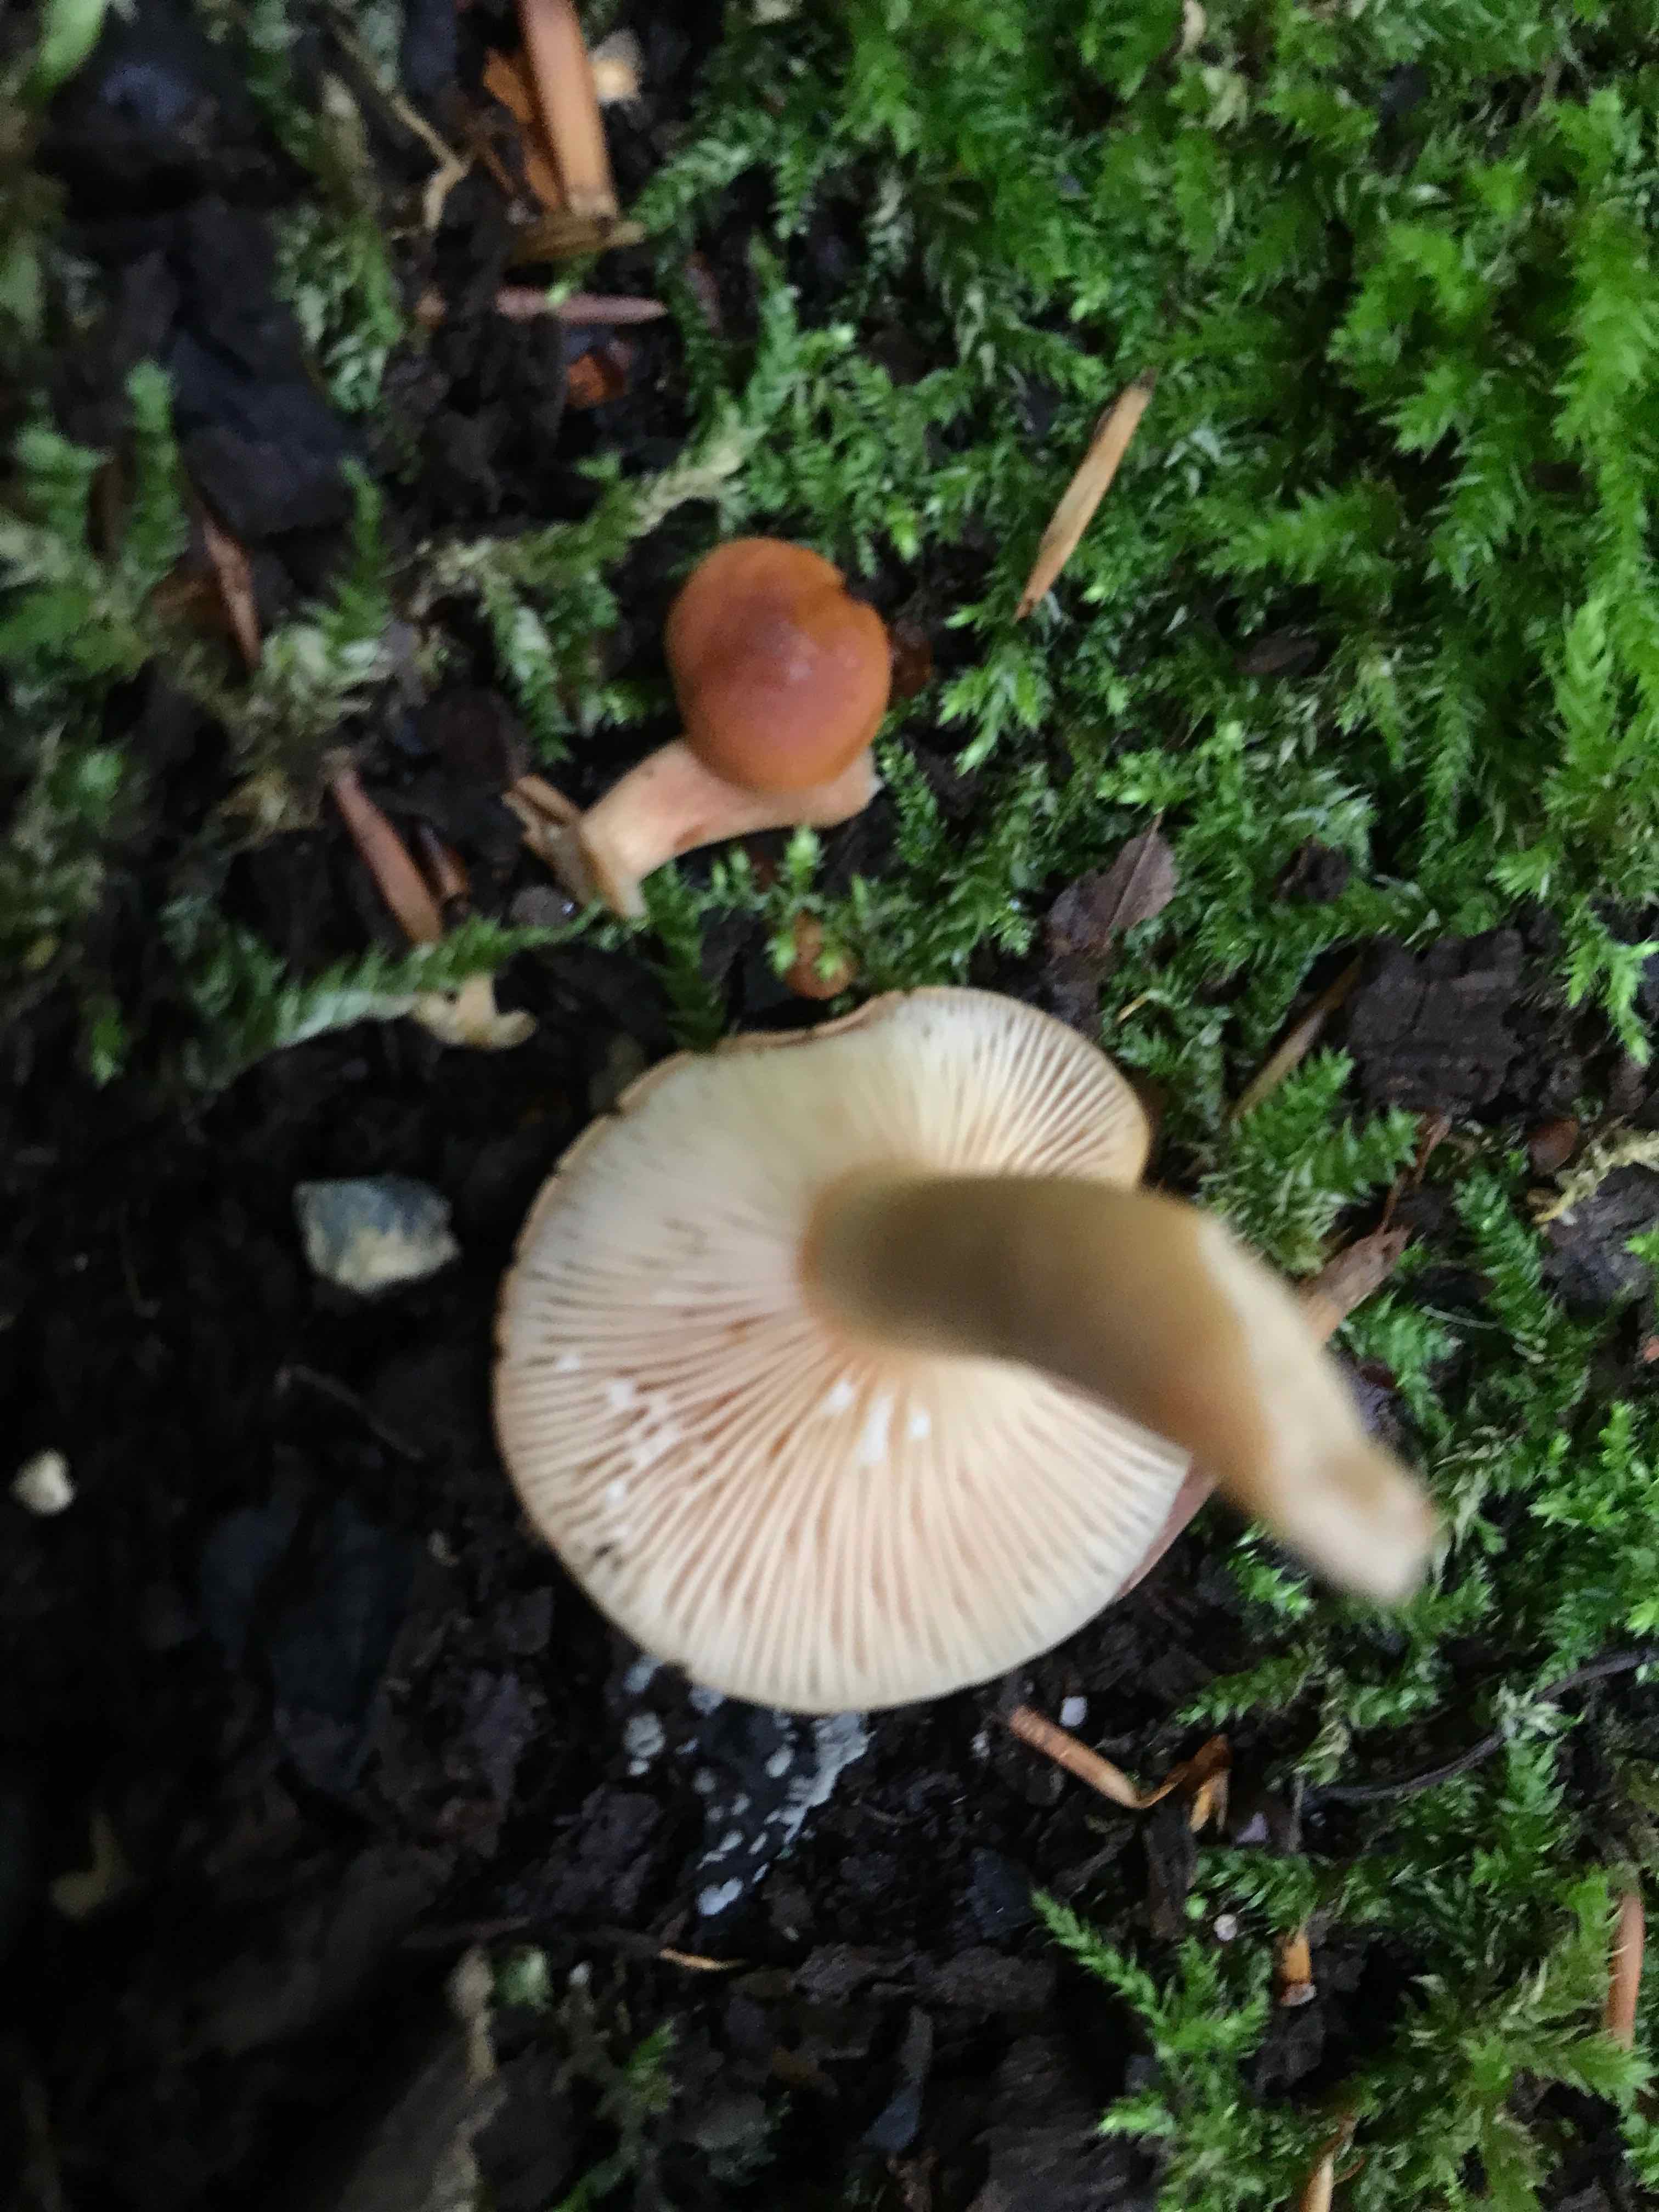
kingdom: Fungi
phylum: Basidiomycota
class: Agaricomycetes
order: Russulales
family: Russulaceae
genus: Lactarius
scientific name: Lactarius subdulcis
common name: sødlig mælkehat
